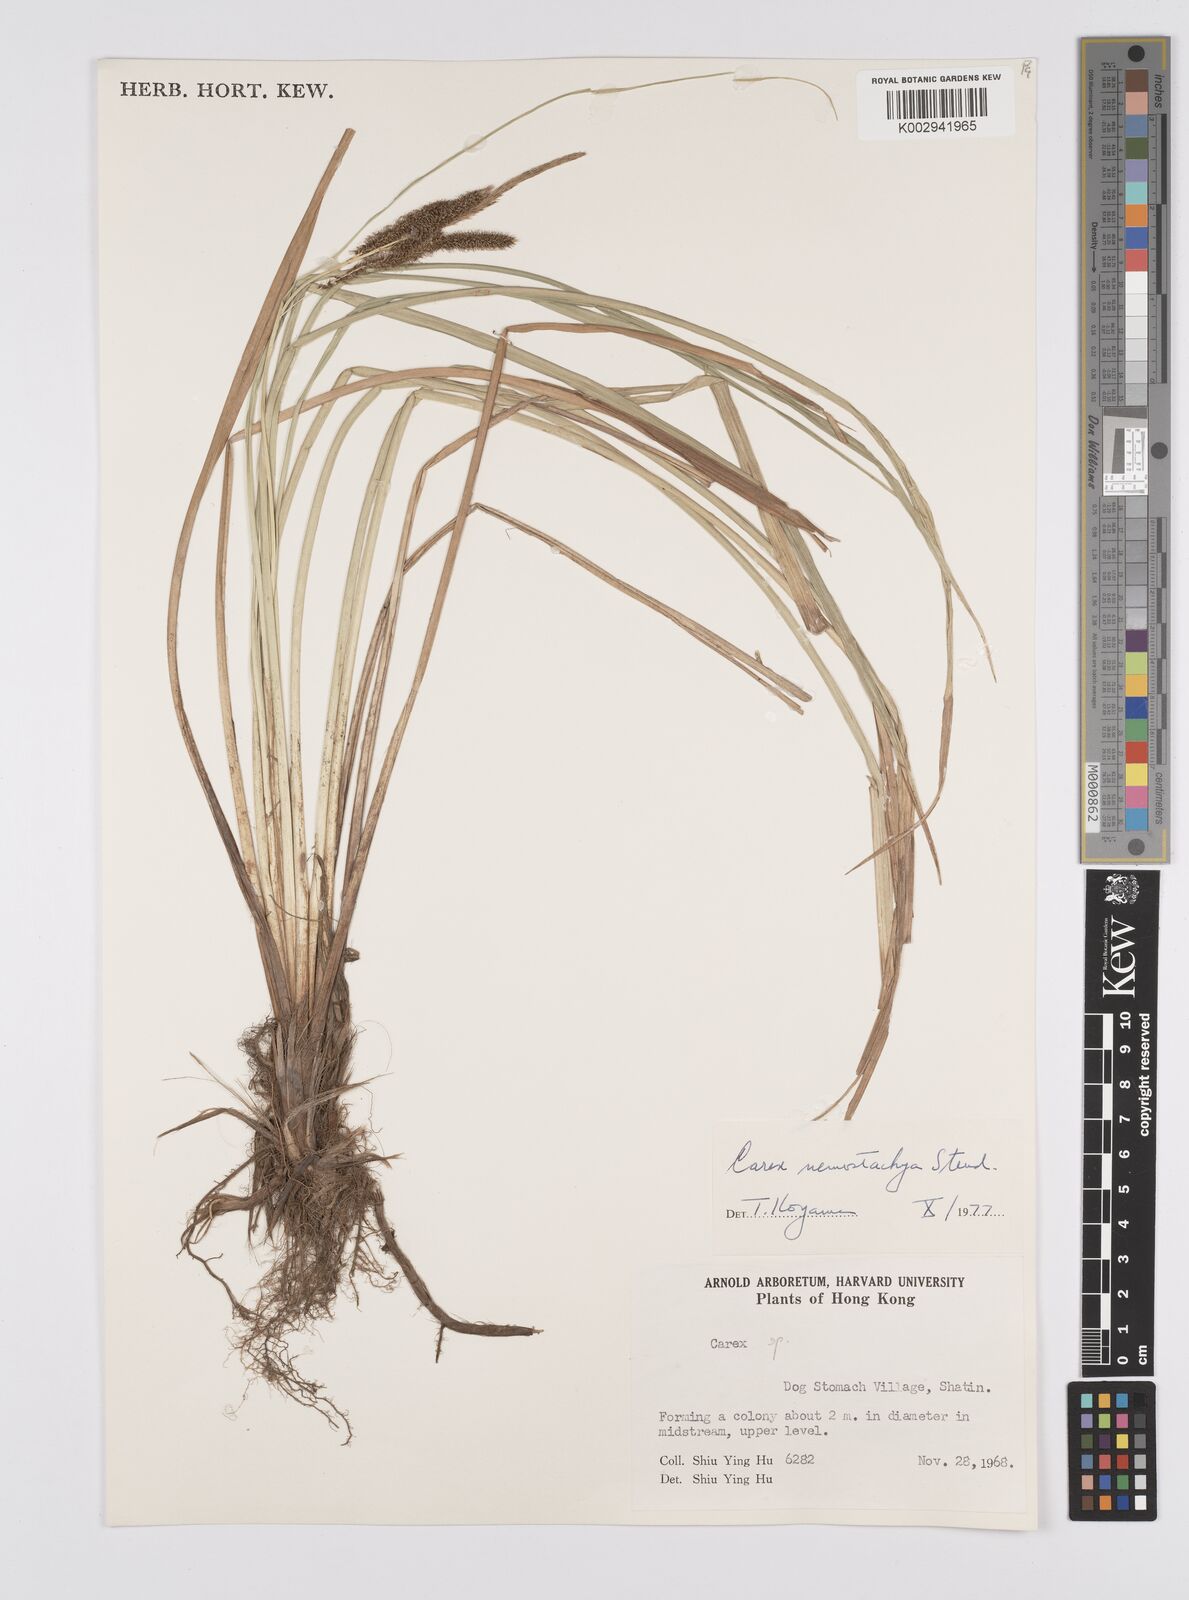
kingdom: Plantae
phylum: Tracheophyta
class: Liliopsida
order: Poales
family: Cyperaceae
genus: Carex
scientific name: Carex nemostachys
